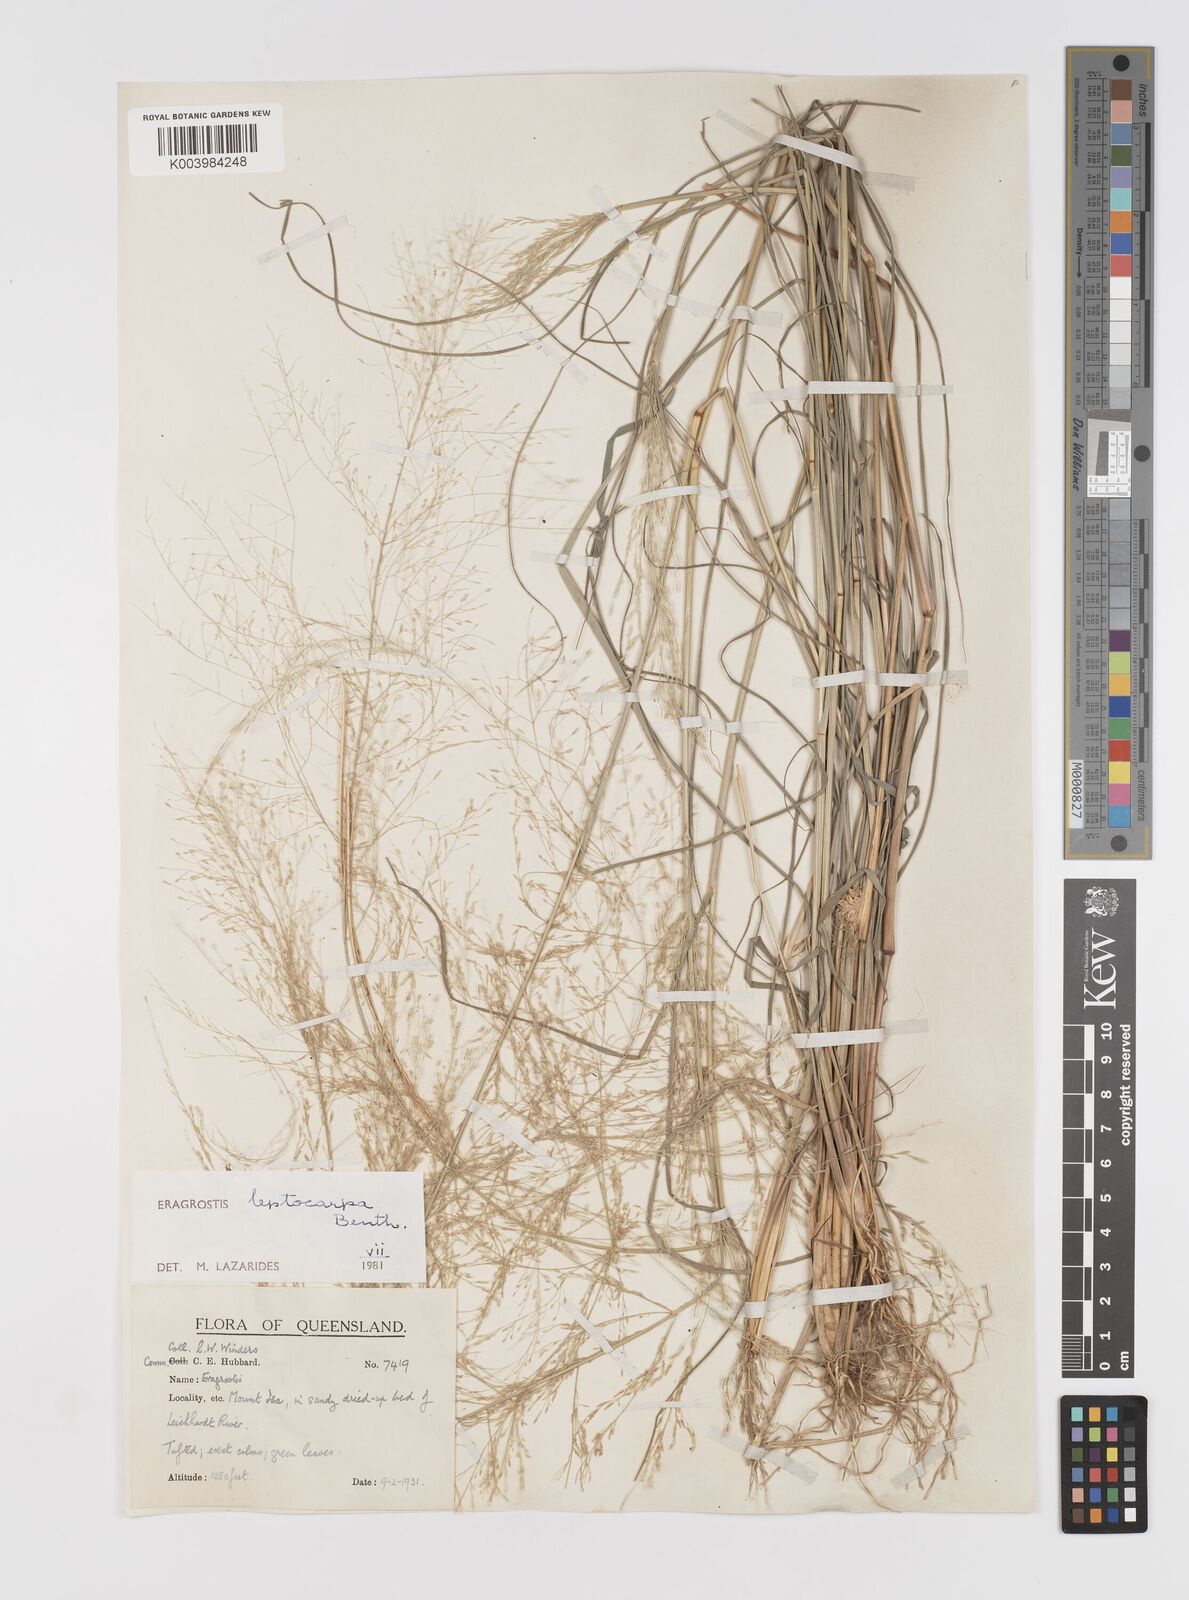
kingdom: Plantae
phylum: Tracheophyta
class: Liliopsida
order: Poales
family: Poaceae
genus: Eragrostis
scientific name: Eragrostis leptocarpa
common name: Drooping love grass
